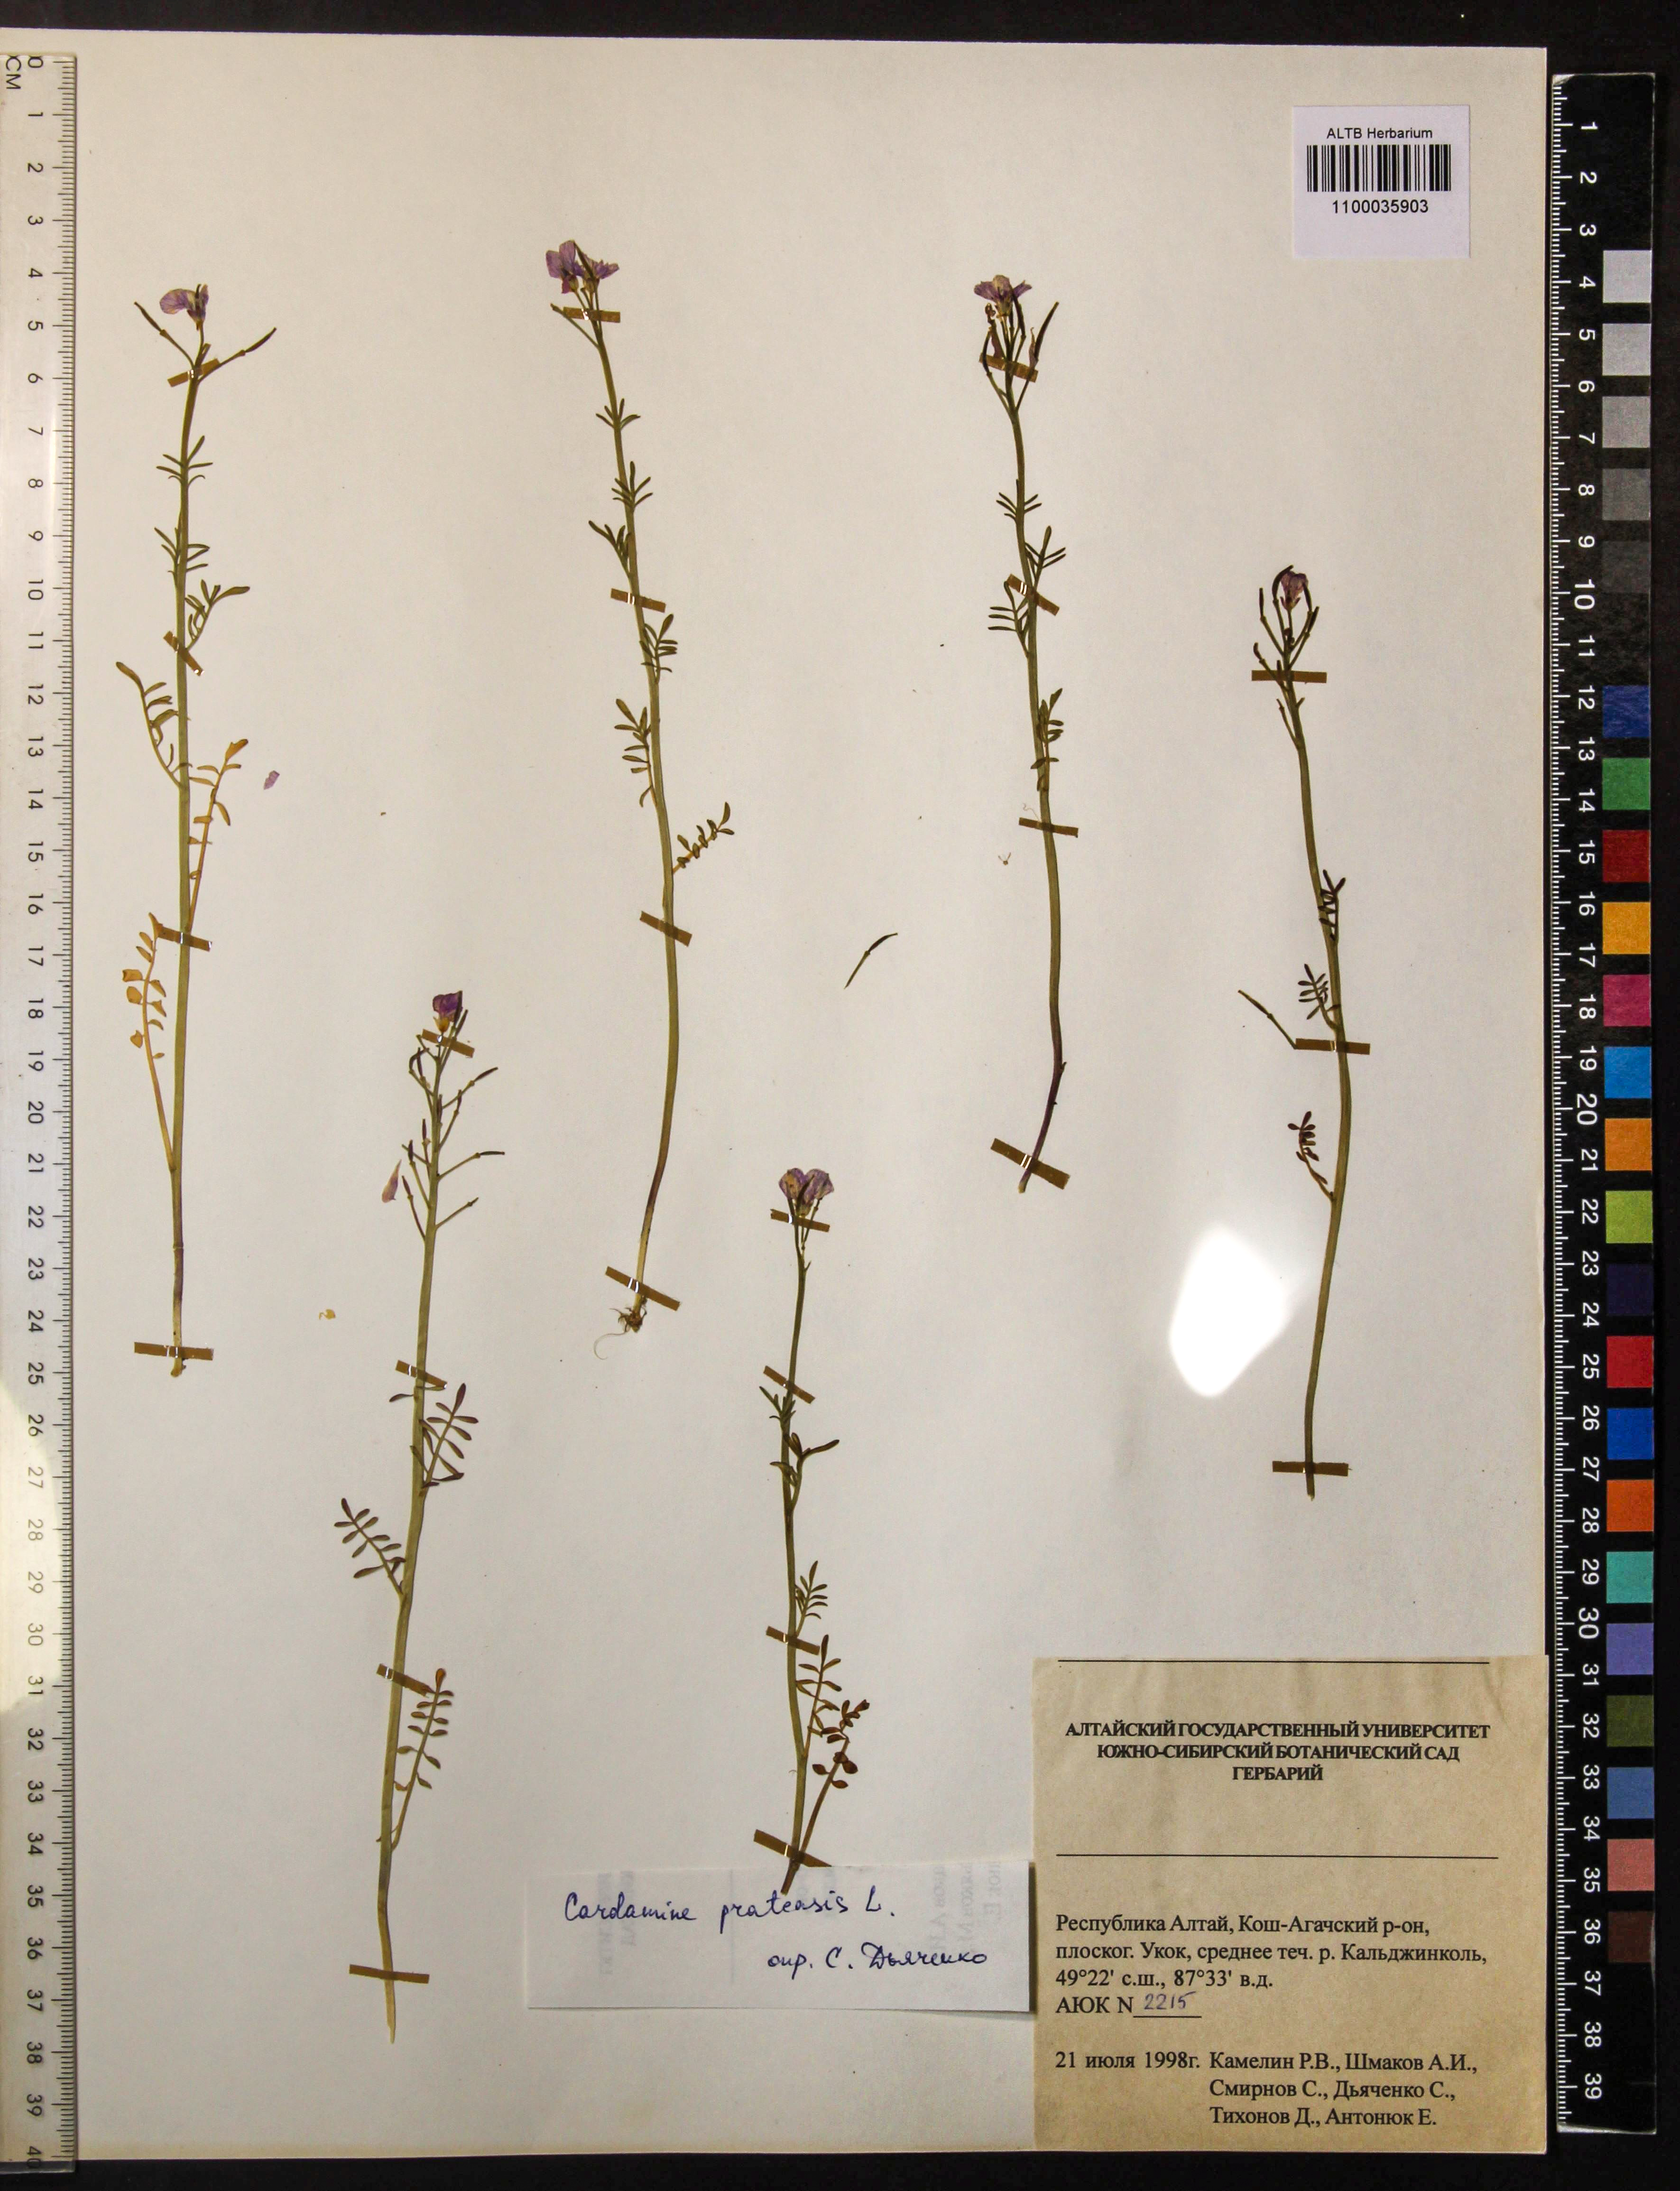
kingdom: Plantae
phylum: Tracheophyta
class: Magnoliopsida
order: Brassicales
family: Brassicaceae
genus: Cardamine
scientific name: Cardamine pratensis
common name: Cuckoo flower
